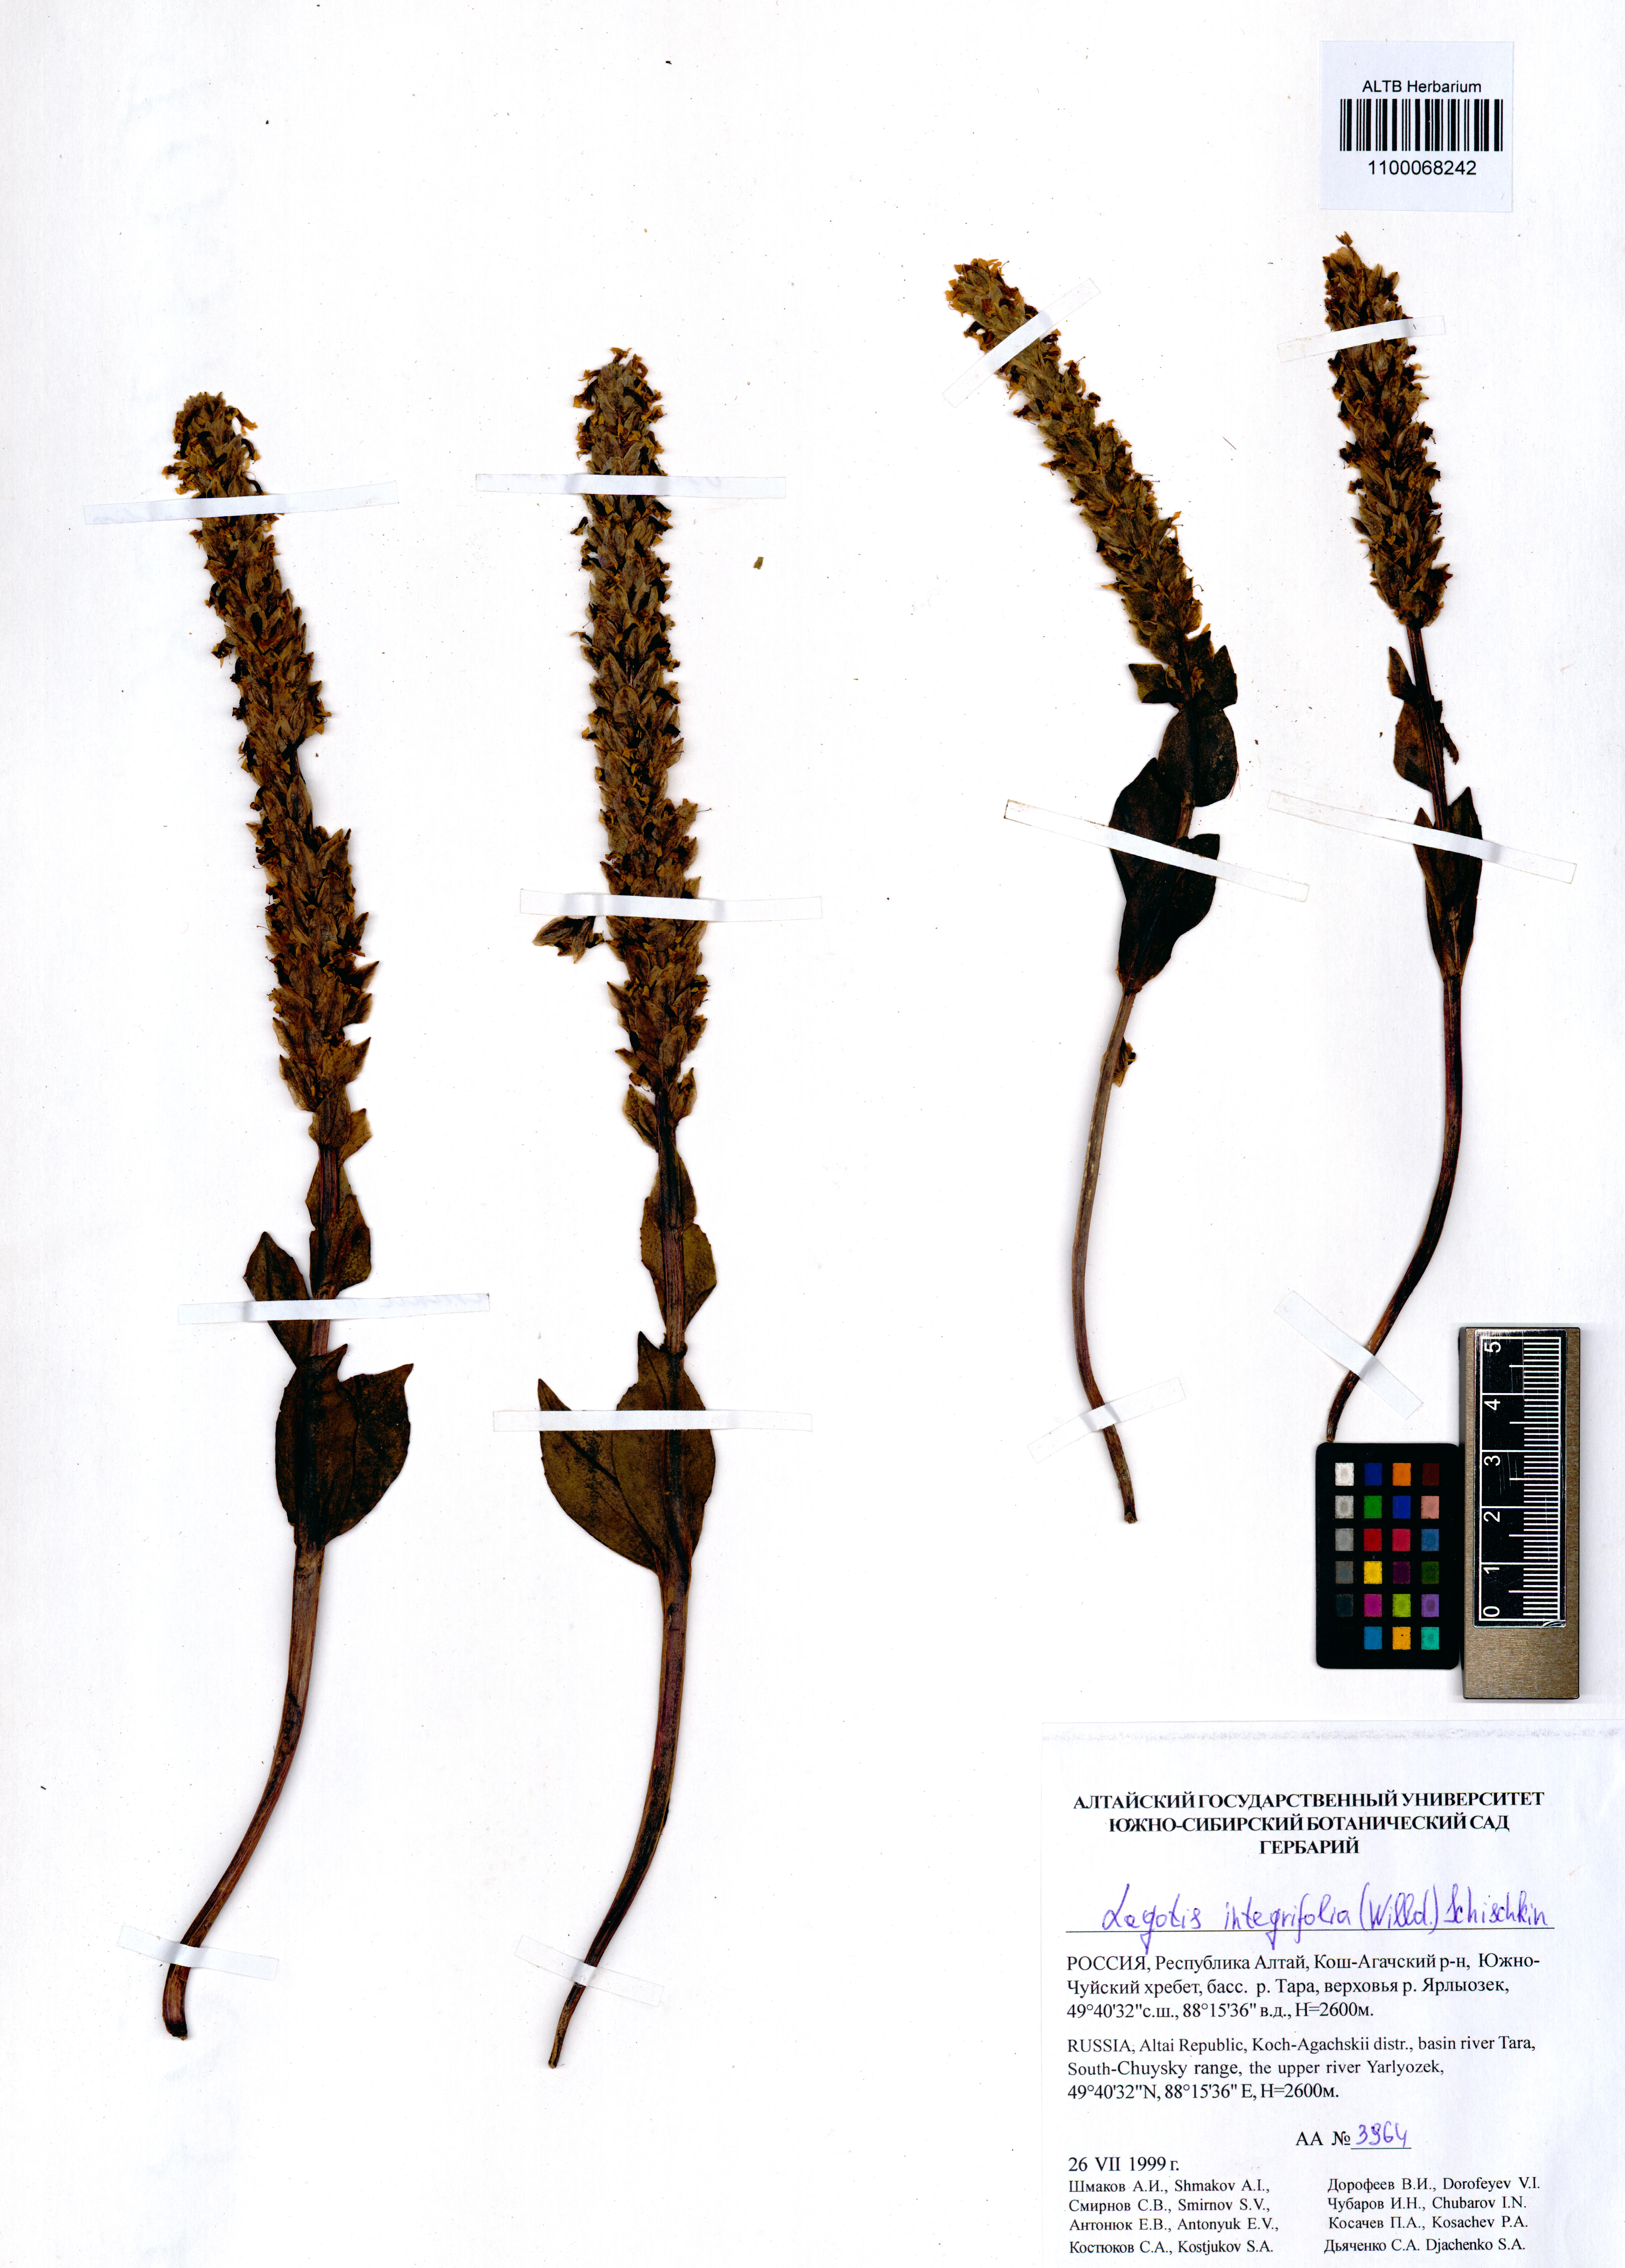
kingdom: Plantae
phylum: Tracheophyta
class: Magnoliopsida
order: Lamiales
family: Plantaginaceae
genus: Lagotis
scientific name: Lagotis integrifolia
